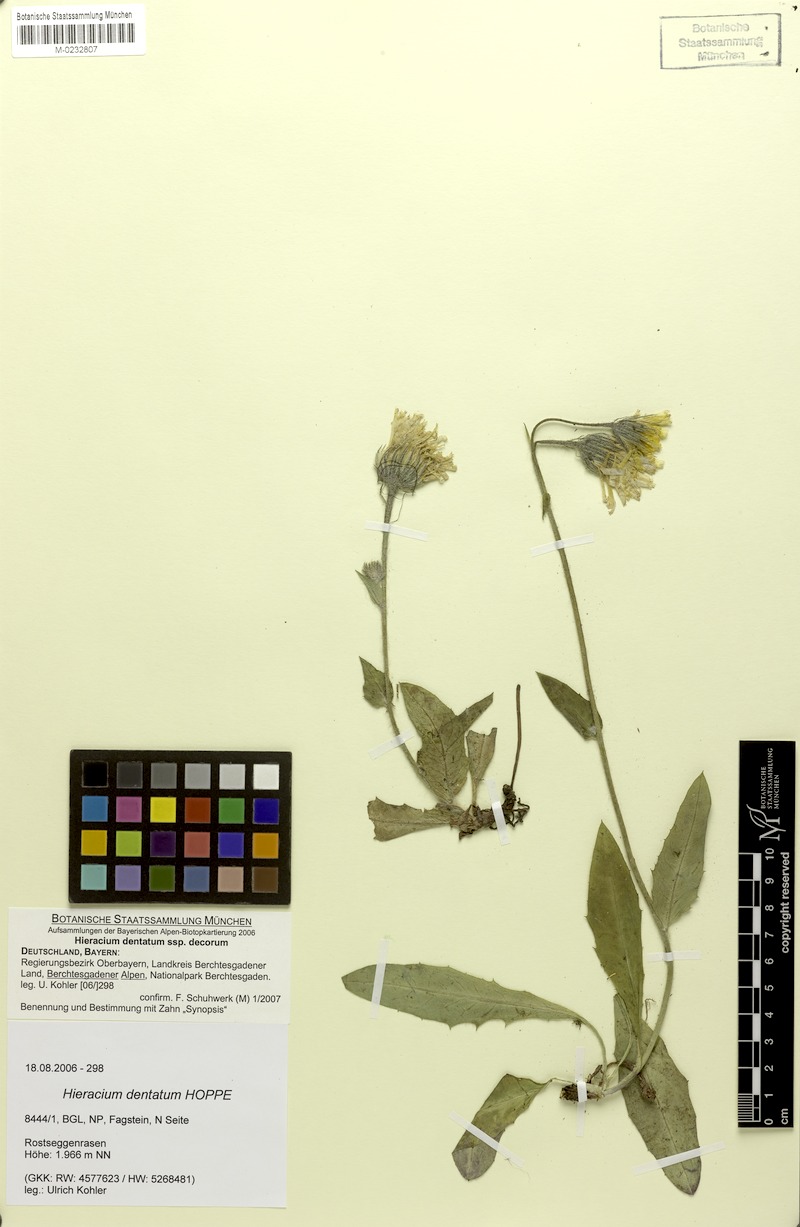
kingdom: Plantae
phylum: Tracheophyta
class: Magnoliopsida
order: Asterales
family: Asteraceae
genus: Hieracium
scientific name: Hieracium dentatum
